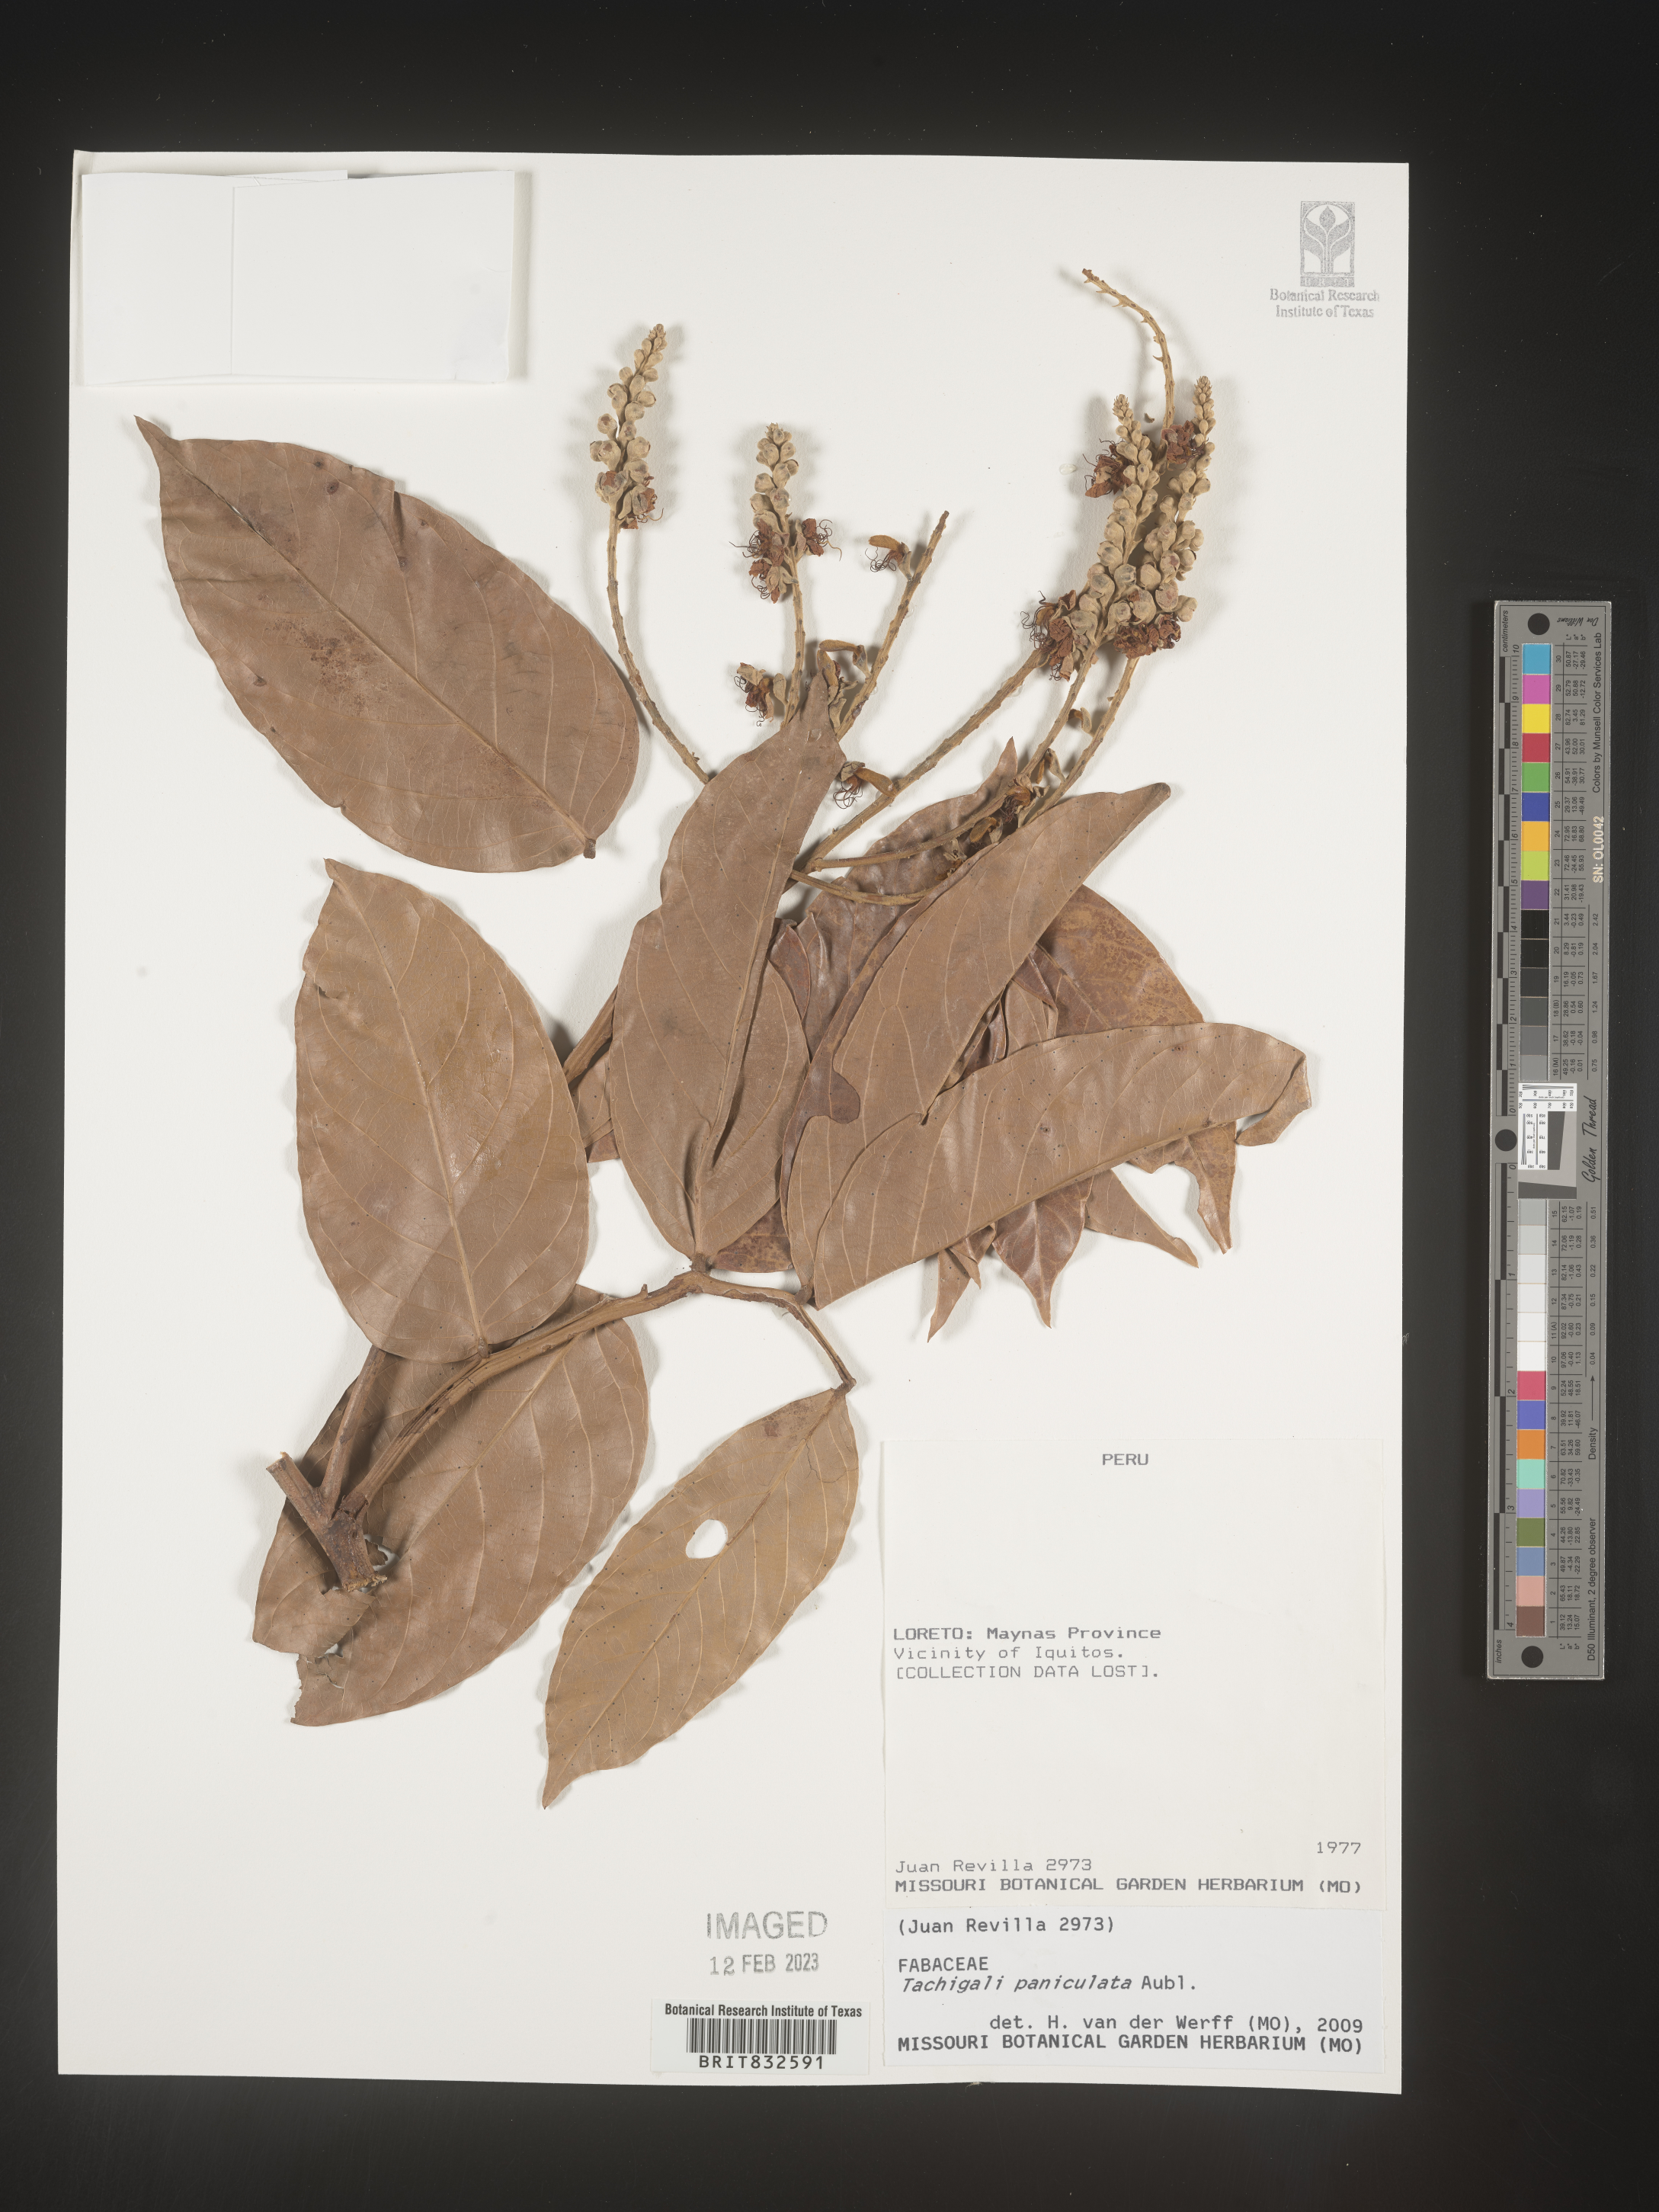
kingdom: Plantae
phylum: Tracheophyta
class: Magnoliopsida
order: Fabales
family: Fabaceae
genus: Tachigali
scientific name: Tachigali
